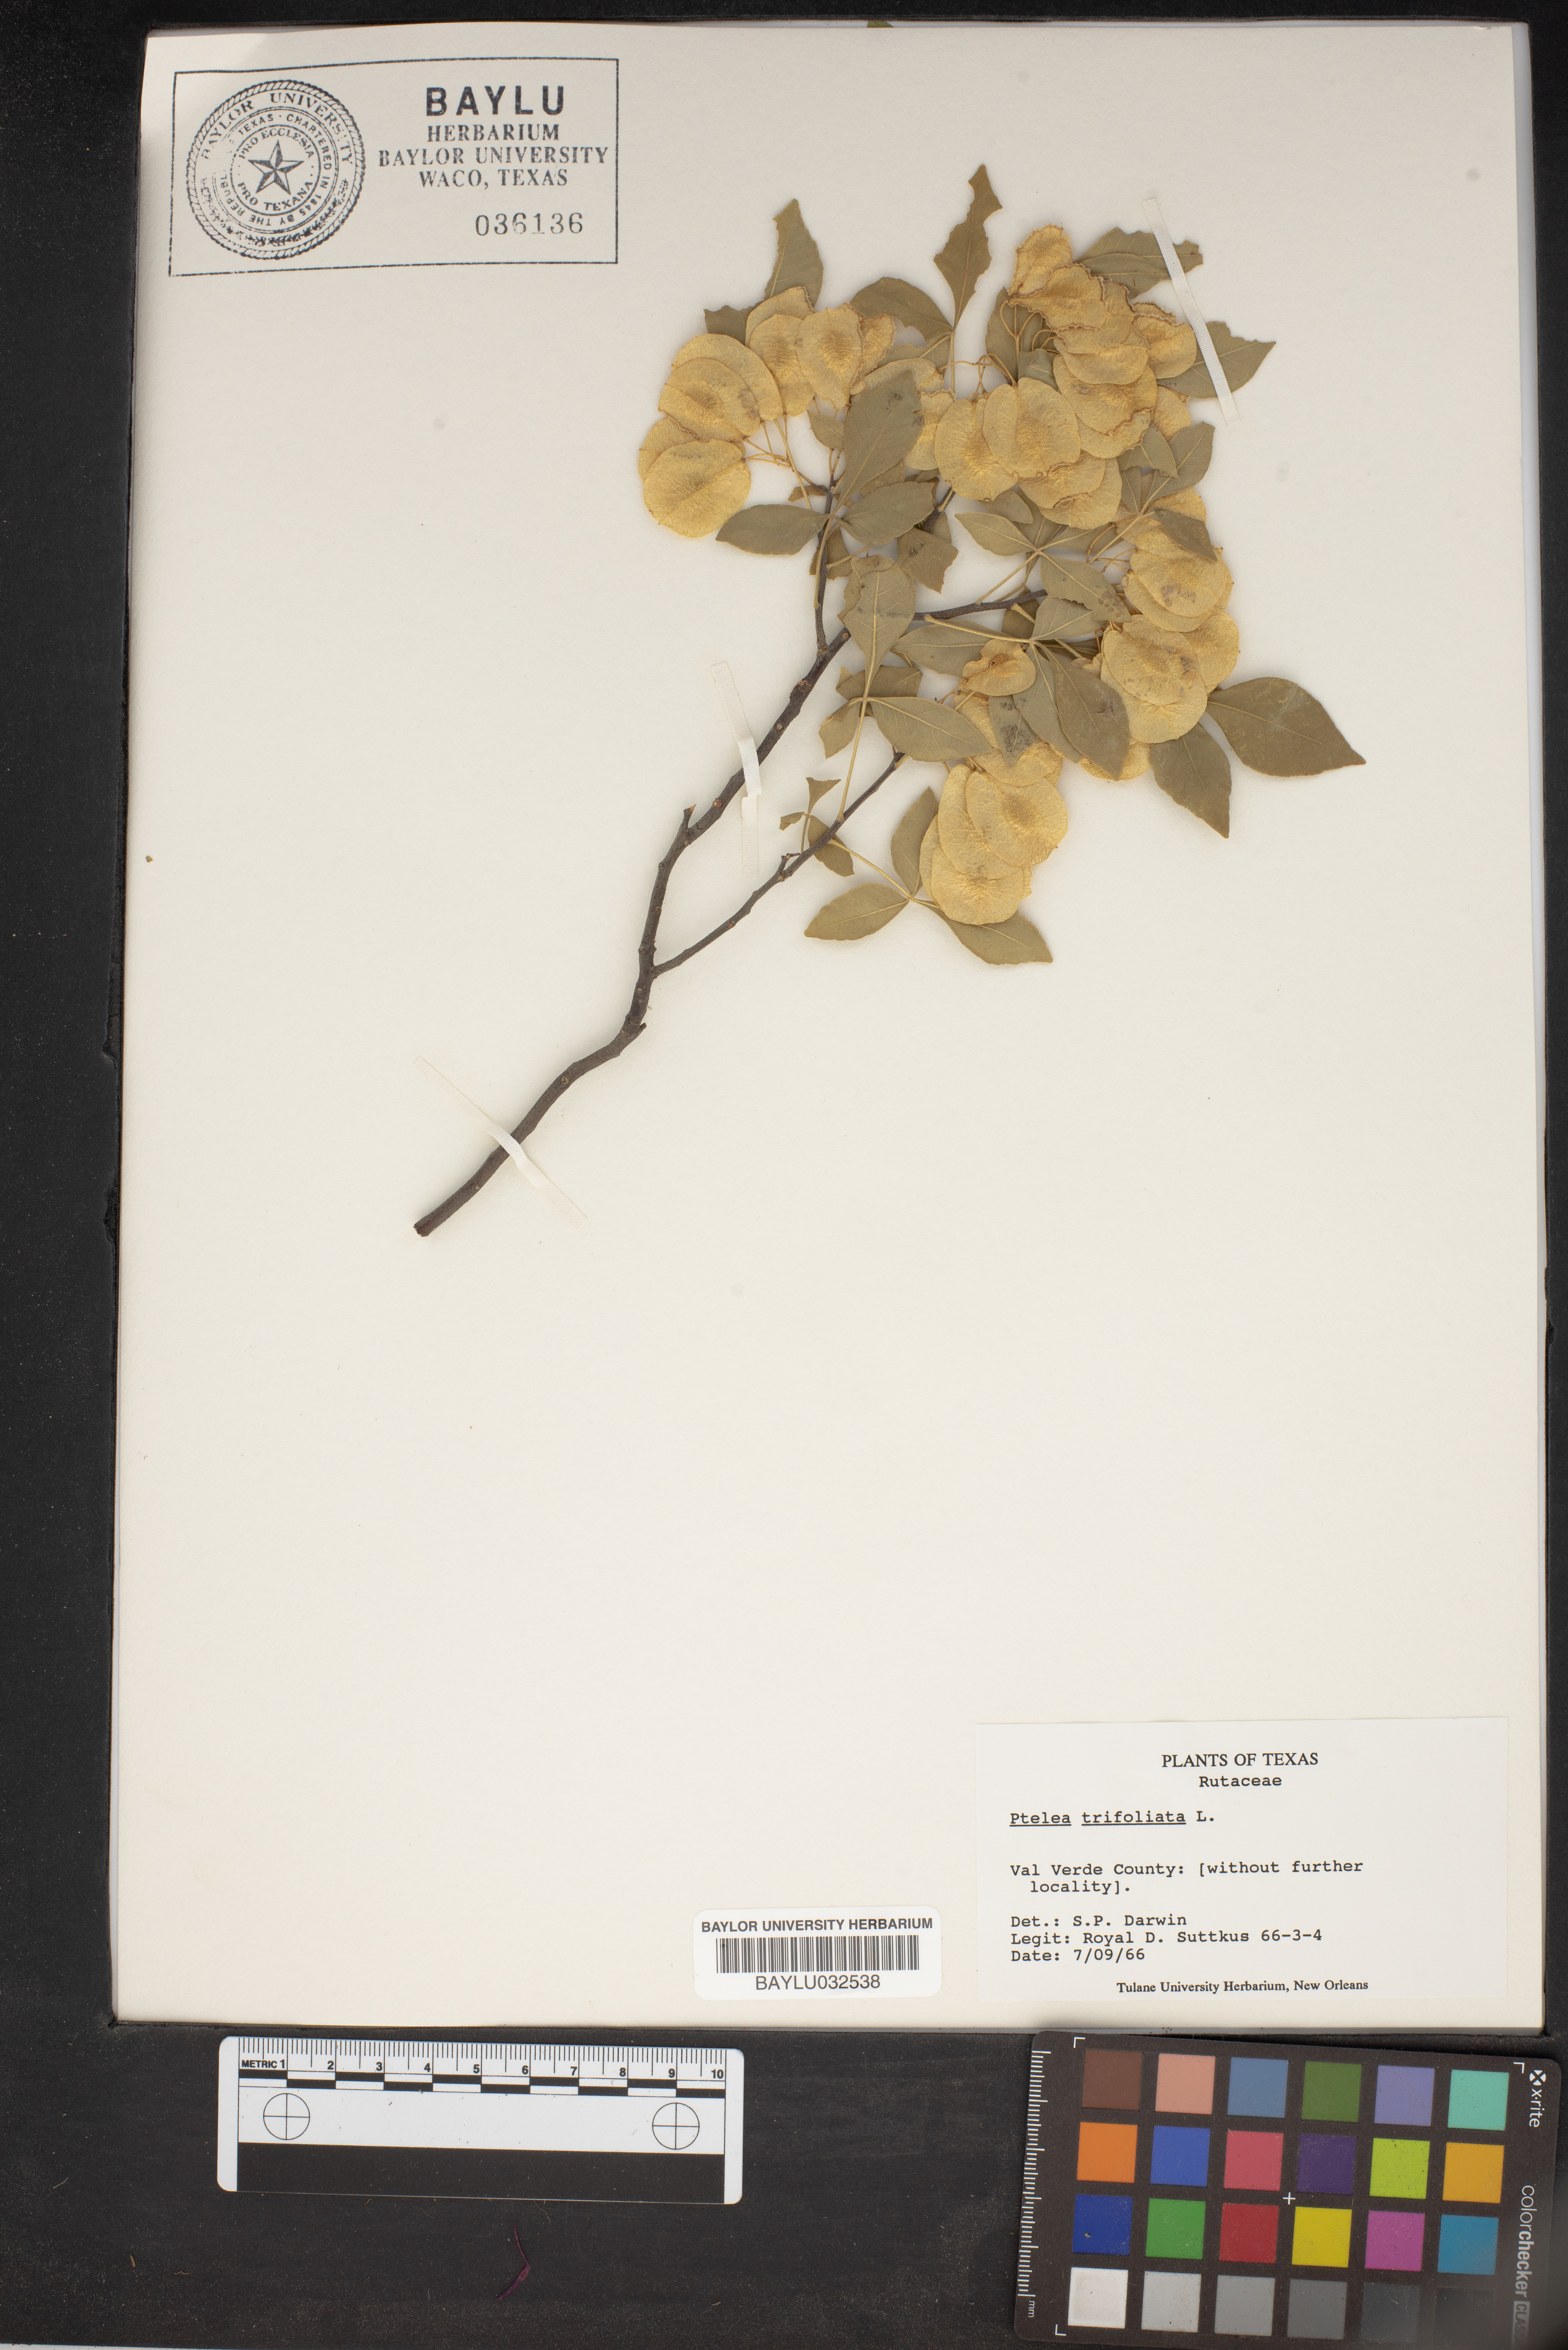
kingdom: Plantae
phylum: Tracheophyta
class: Magnoliopsida
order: Sapindales
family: Rutaceae
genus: Ptelea
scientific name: Ptelea trifoliata
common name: Common hop-tree
